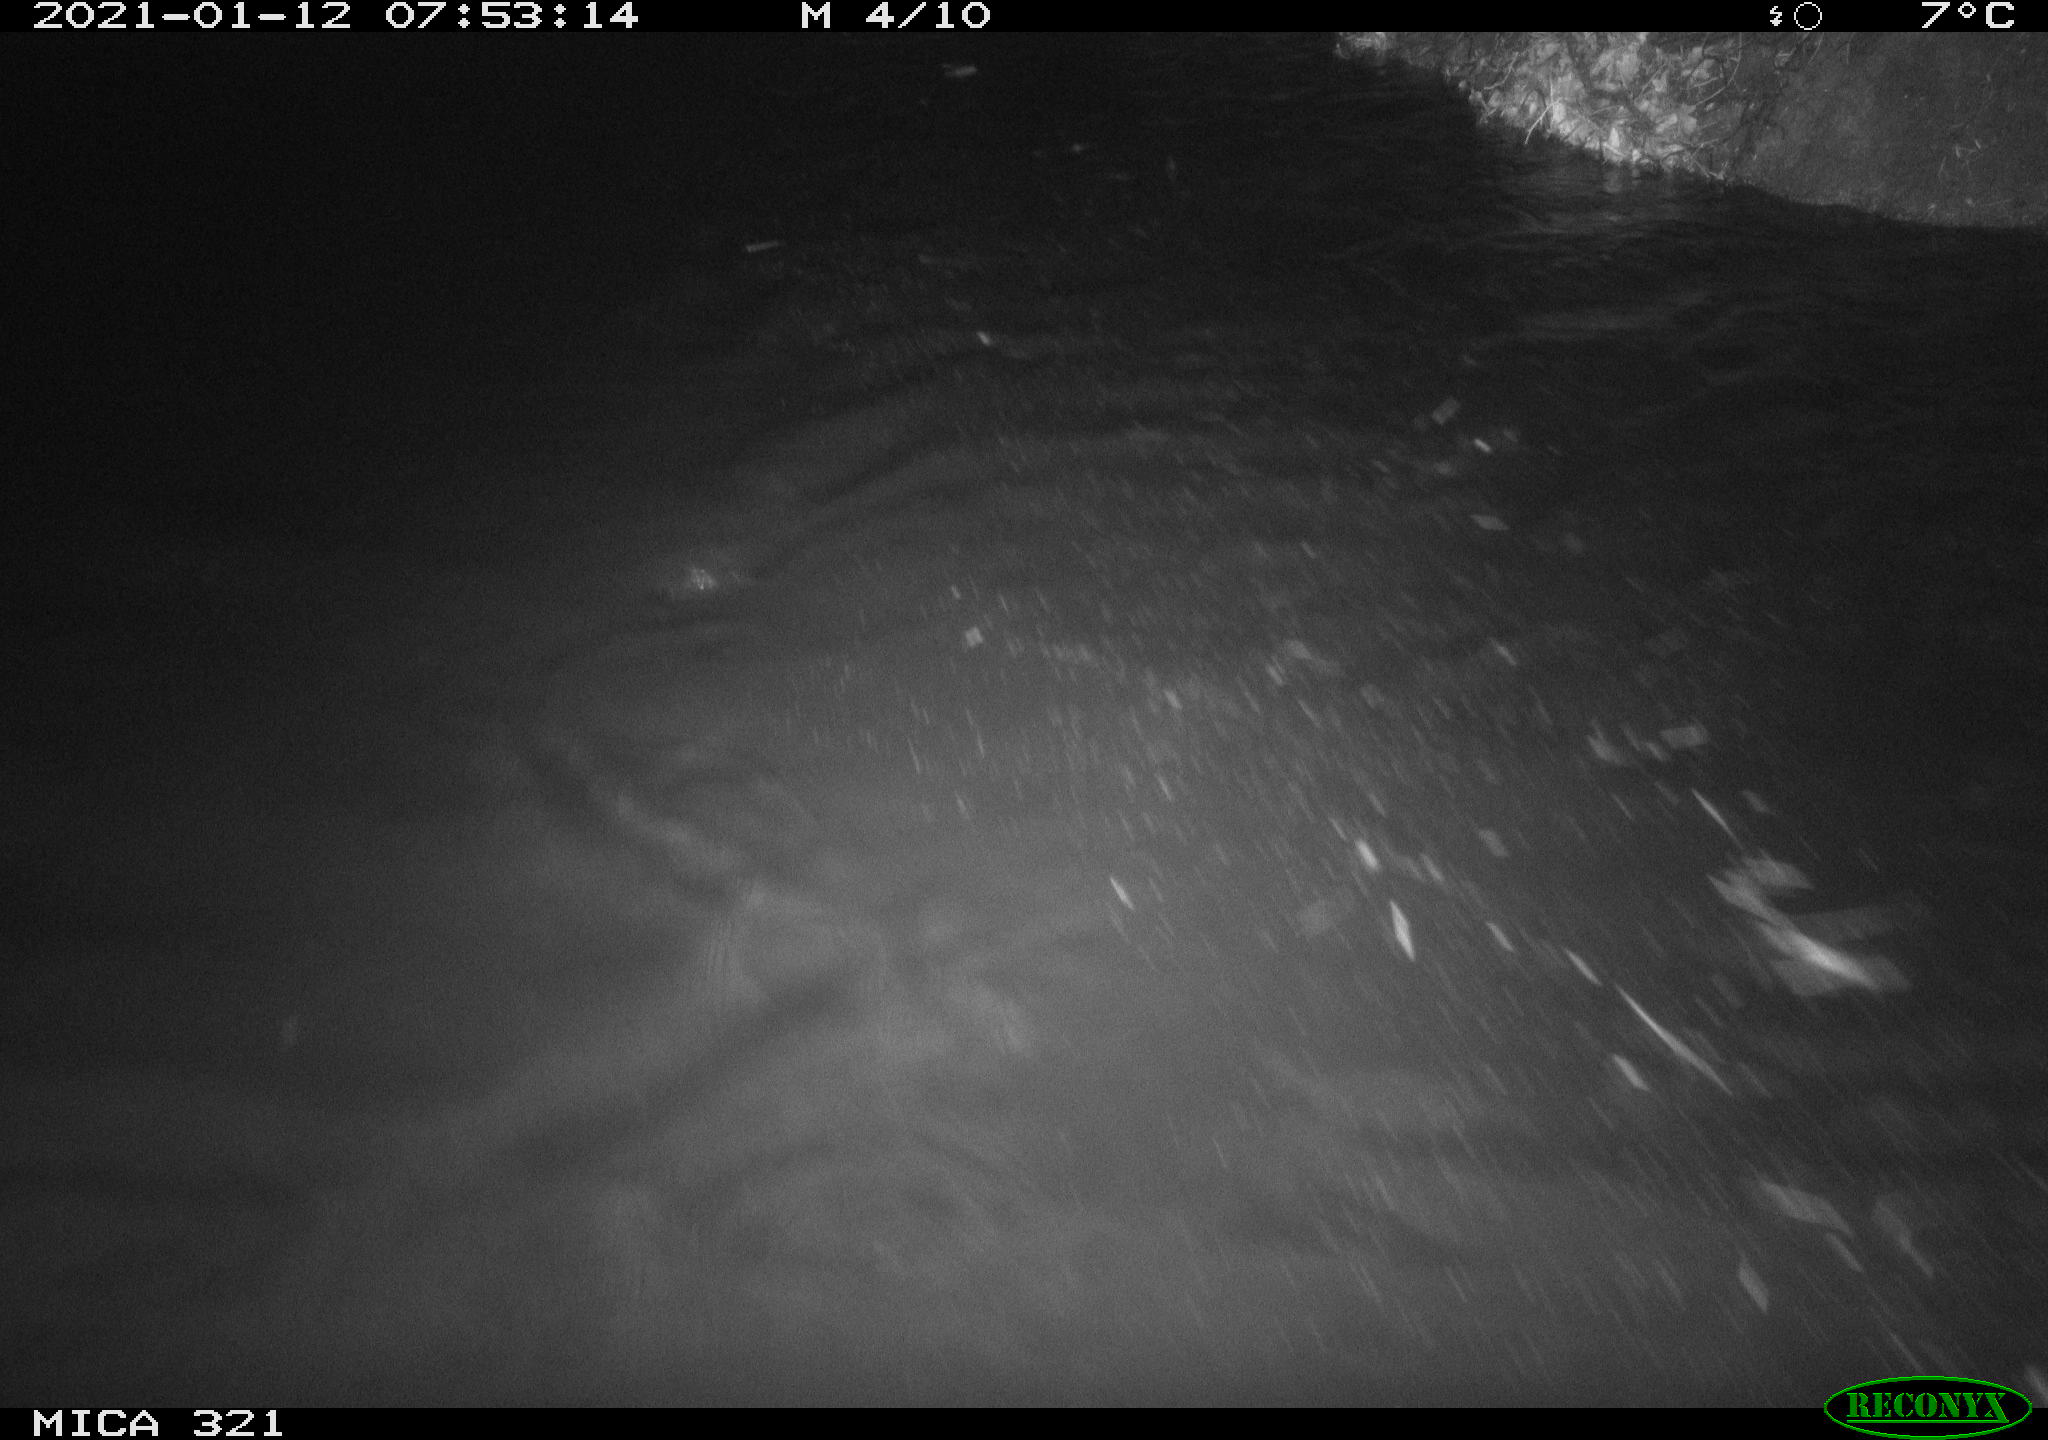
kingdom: Animalia
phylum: Chordata
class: Aves
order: Anseriformes
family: Anatidae
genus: Anas
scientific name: Anas platyrhynchos
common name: Mallard
